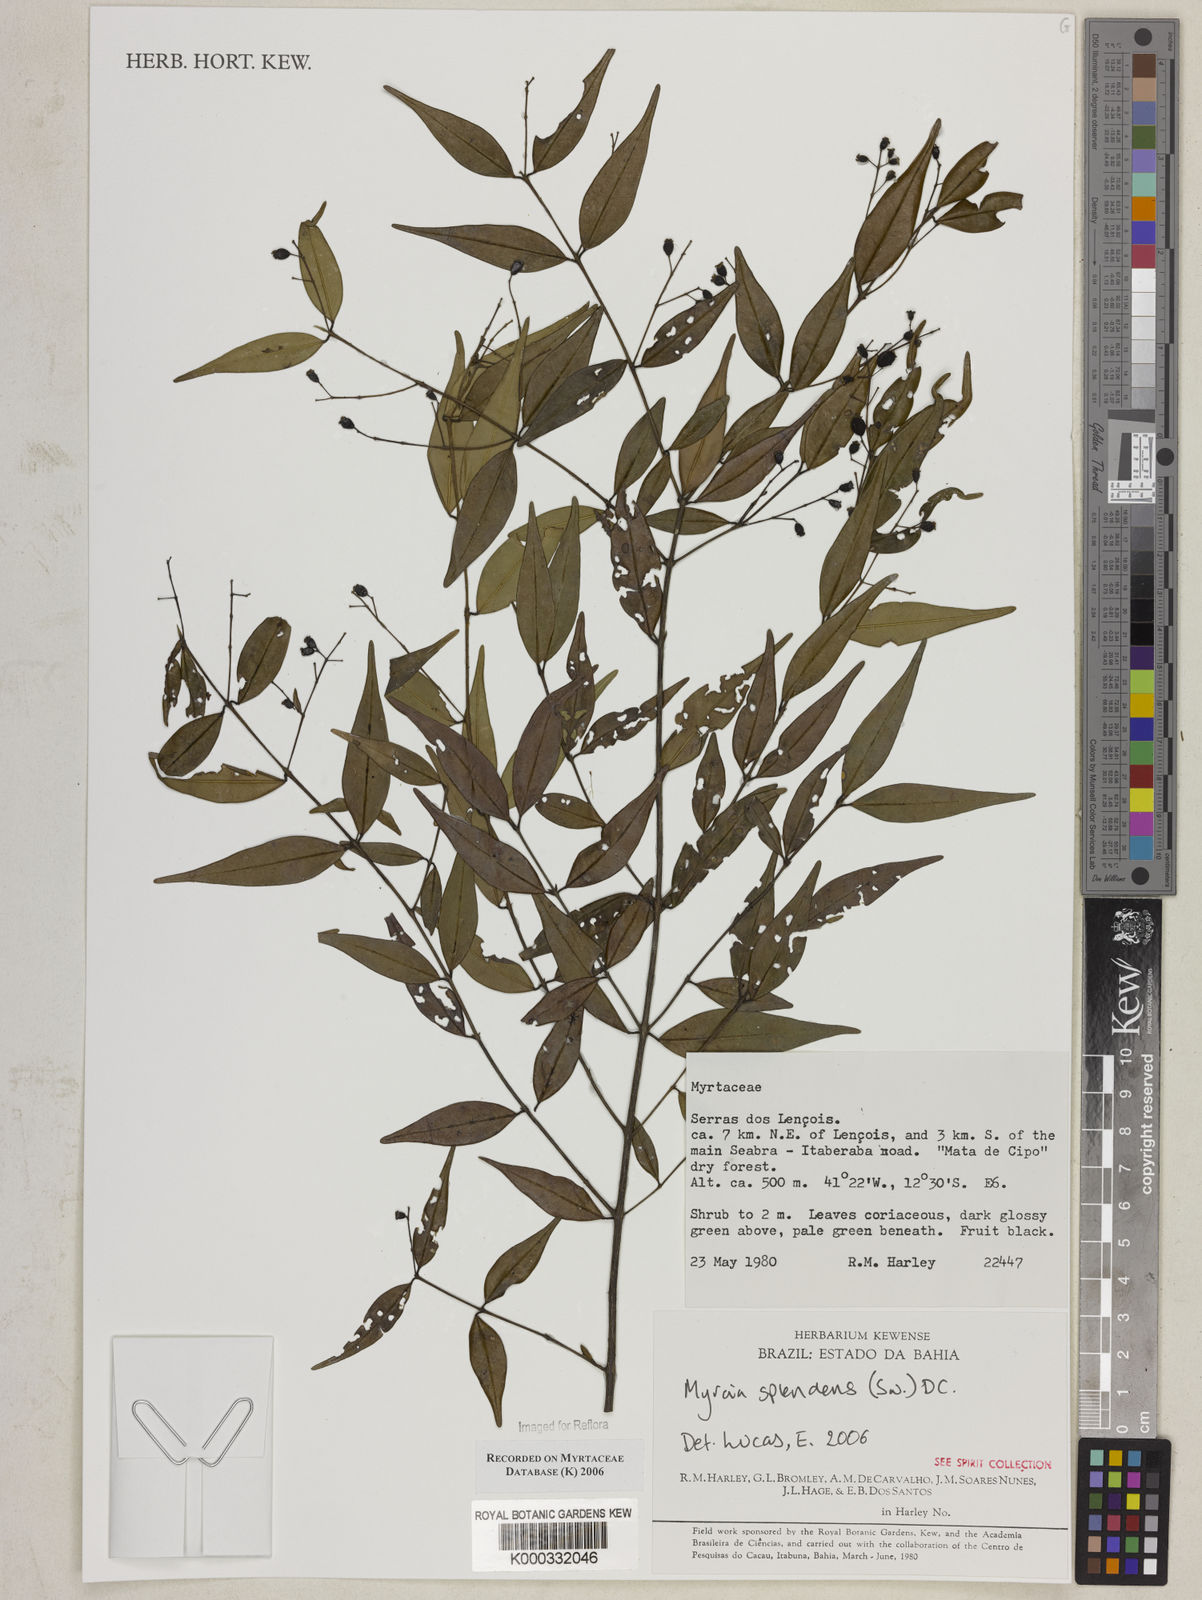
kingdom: Plantae
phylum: Tracheophyta
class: Magnoliopsida
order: Myrtales
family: Myrtaceae
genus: Myrcia
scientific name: Myrcia splendens
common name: Surinam cherry
